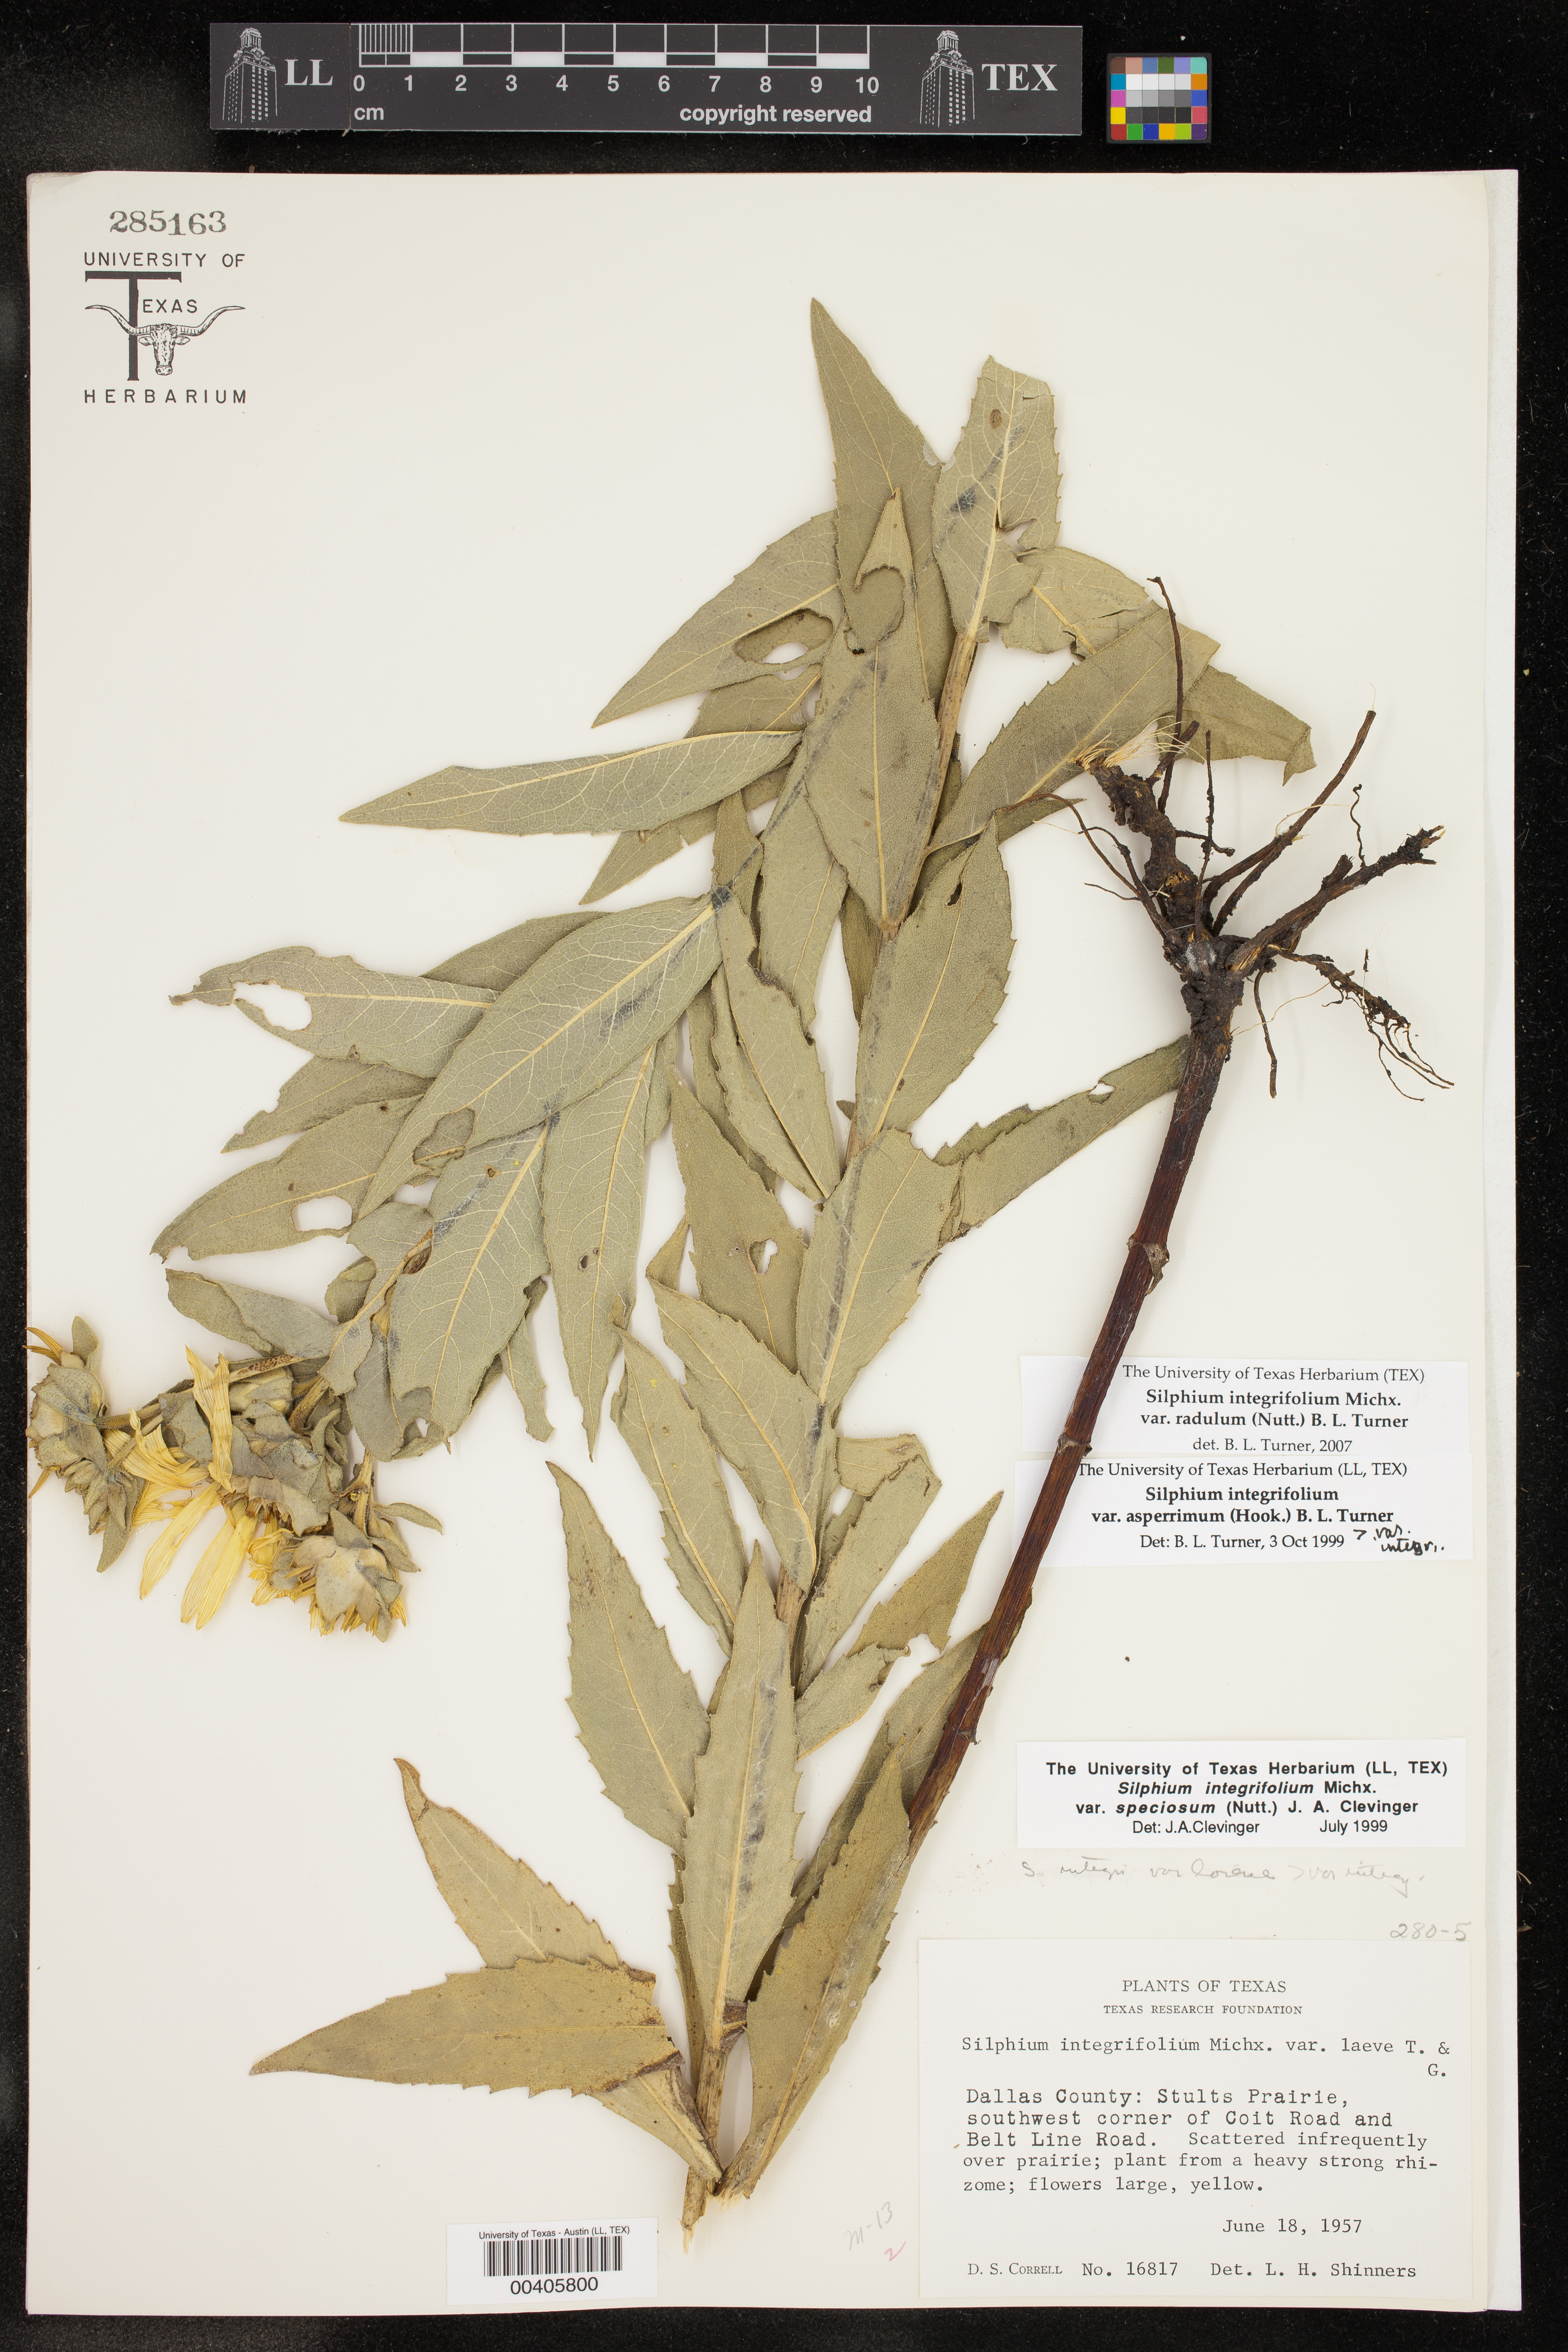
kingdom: Plantae
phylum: Tracheophyta
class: Magnoliopsida
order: Asterales
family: Asteraceae
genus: Silphium
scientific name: Silphium asperrimum
